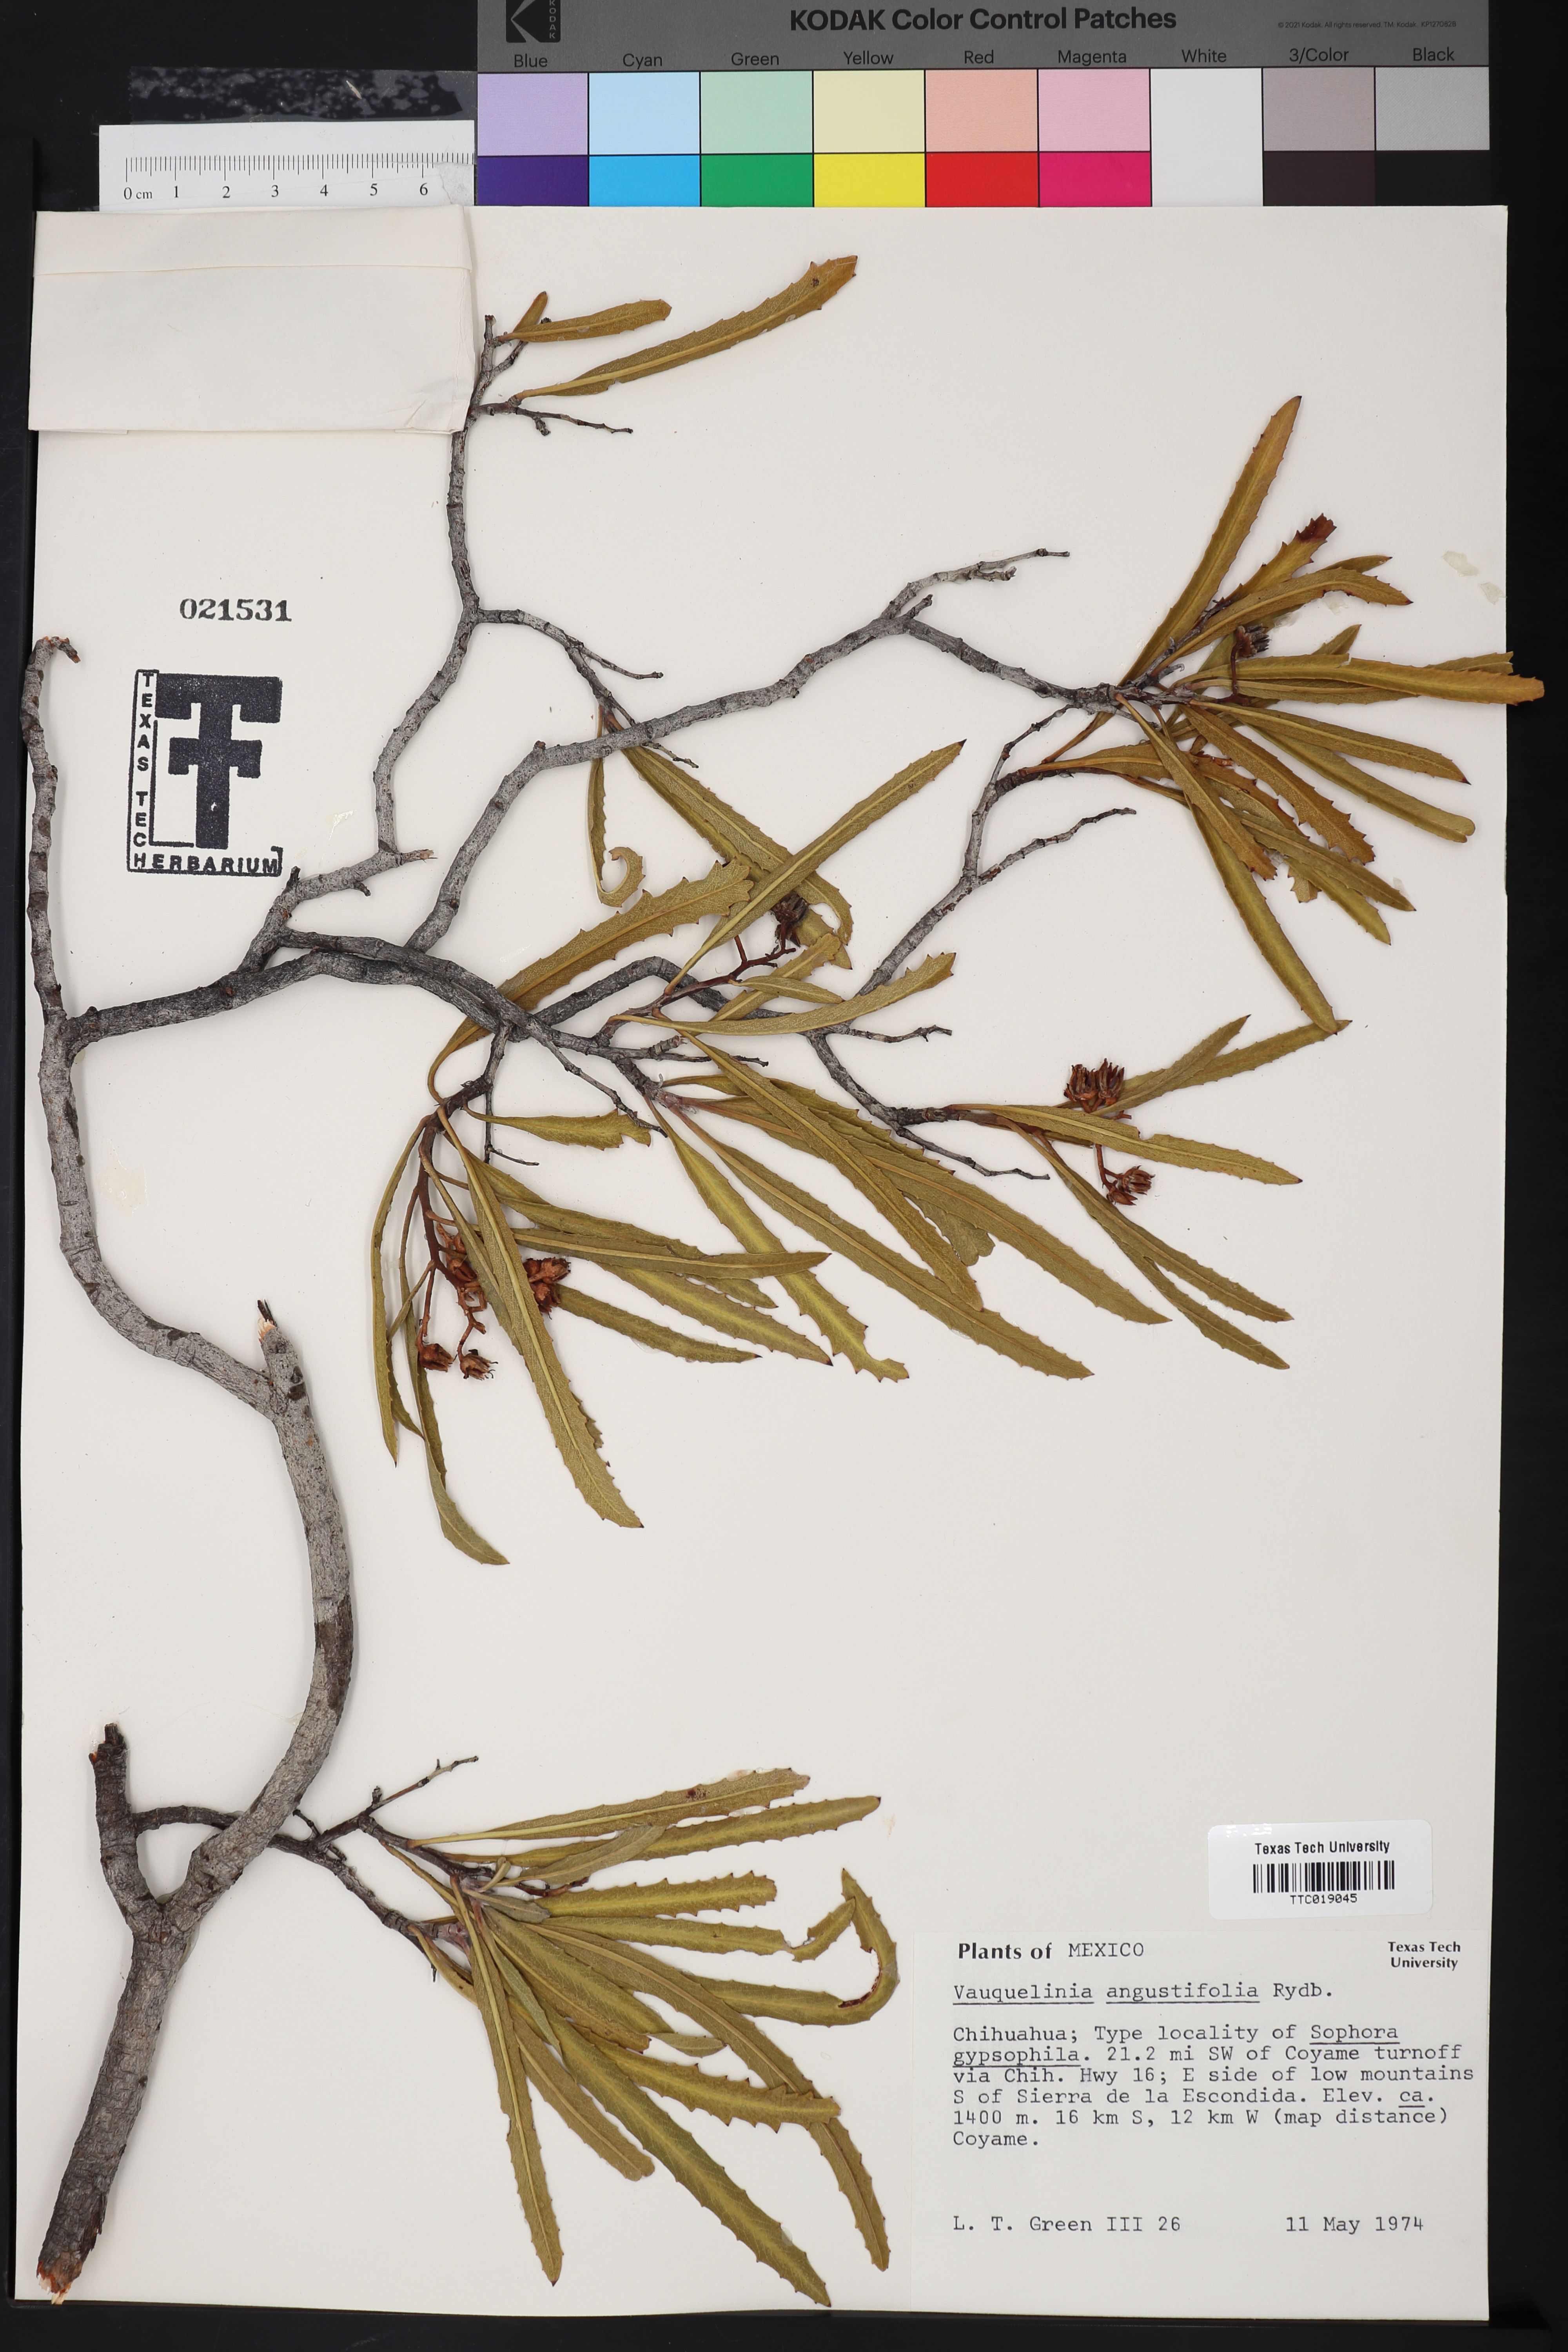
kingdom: Plantae
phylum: Tracheophyta
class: Magnoliopsida
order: Rosales
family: Rosaceae
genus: Vauquelinia
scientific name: Vauquelinia corymbosa
